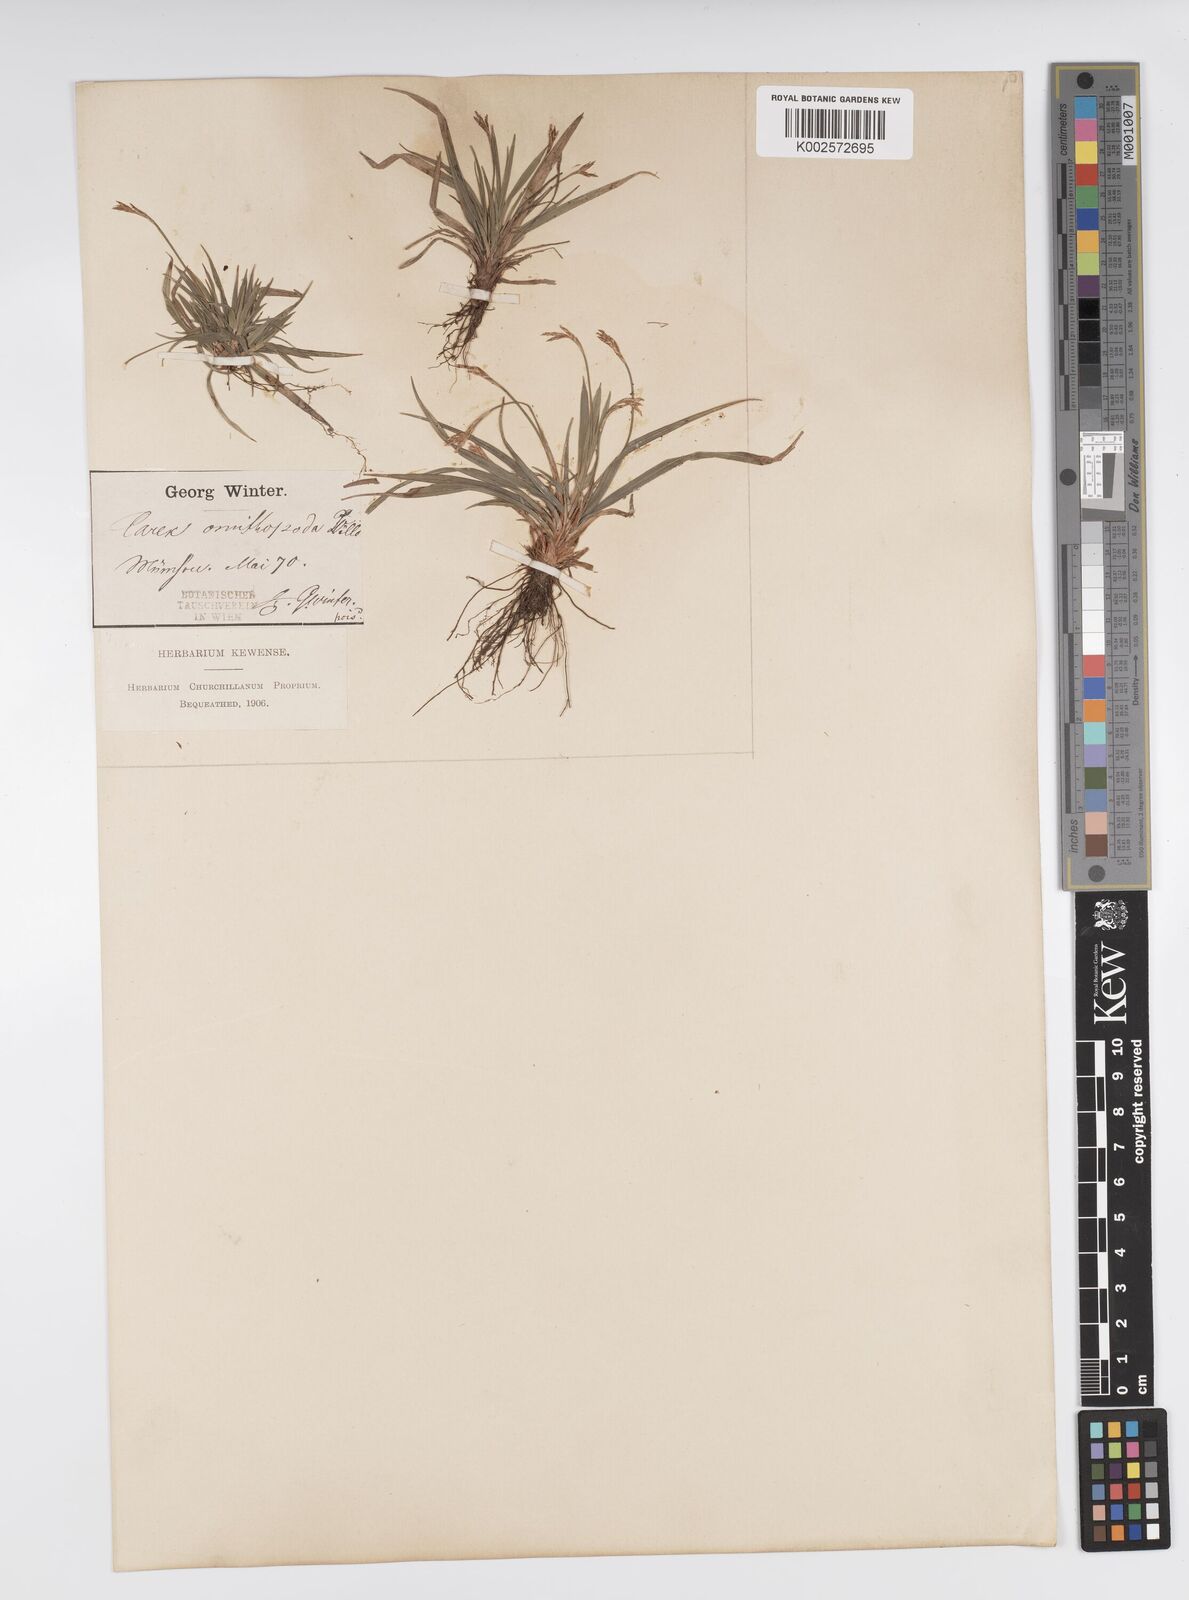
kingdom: Plantae
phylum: Tracheophyta
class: Liliopsida
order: Poales
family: Cyperaceae
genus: Carex
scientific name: Carex ornithopoda
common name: Bird's-foot sedge
